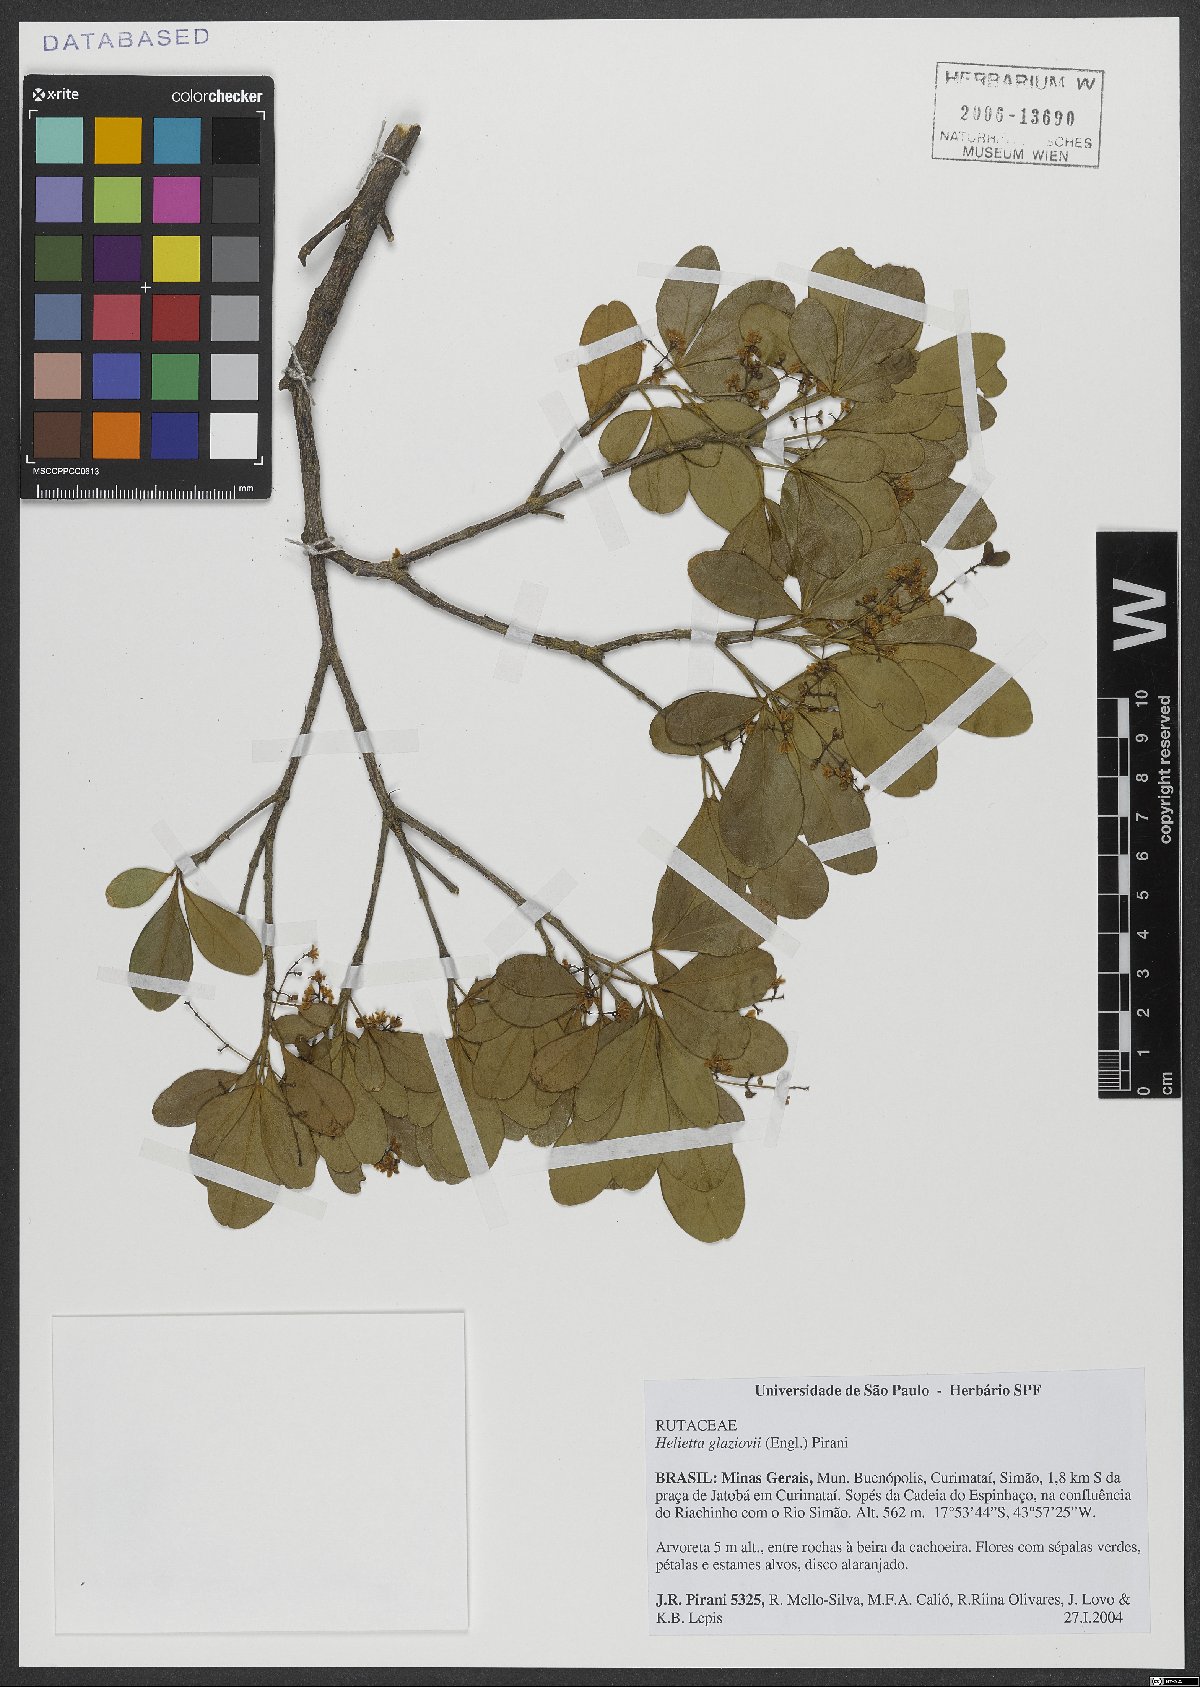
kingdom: Plantae
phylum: Tracheophyta
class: Magnoliopsida
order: Sapindales
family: Rutaceae
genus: Helietta
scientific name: Helietta glaziovii
